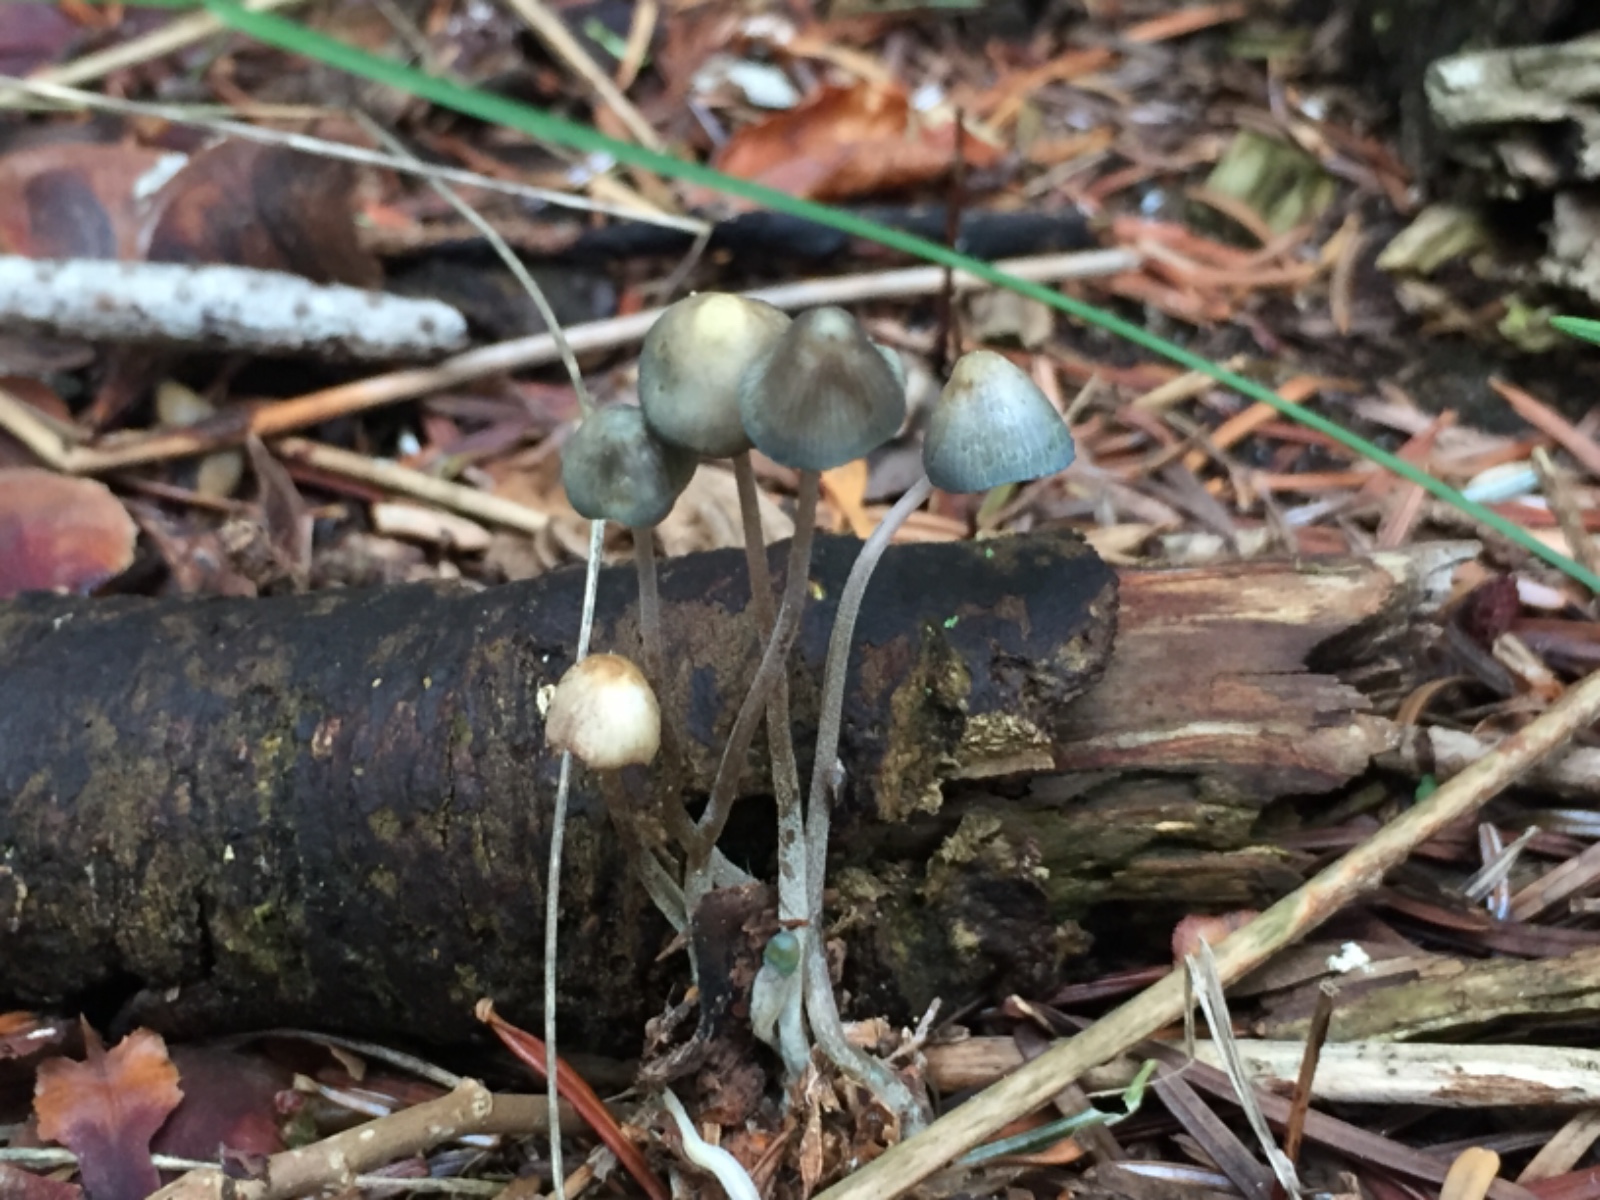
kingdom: Fungi
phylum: Basidiomycota
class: Agaricomycetes
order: Agaricales
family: Mycenaceae
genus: Mycena
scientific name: Mycena amicta
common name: iris-huesvamp
